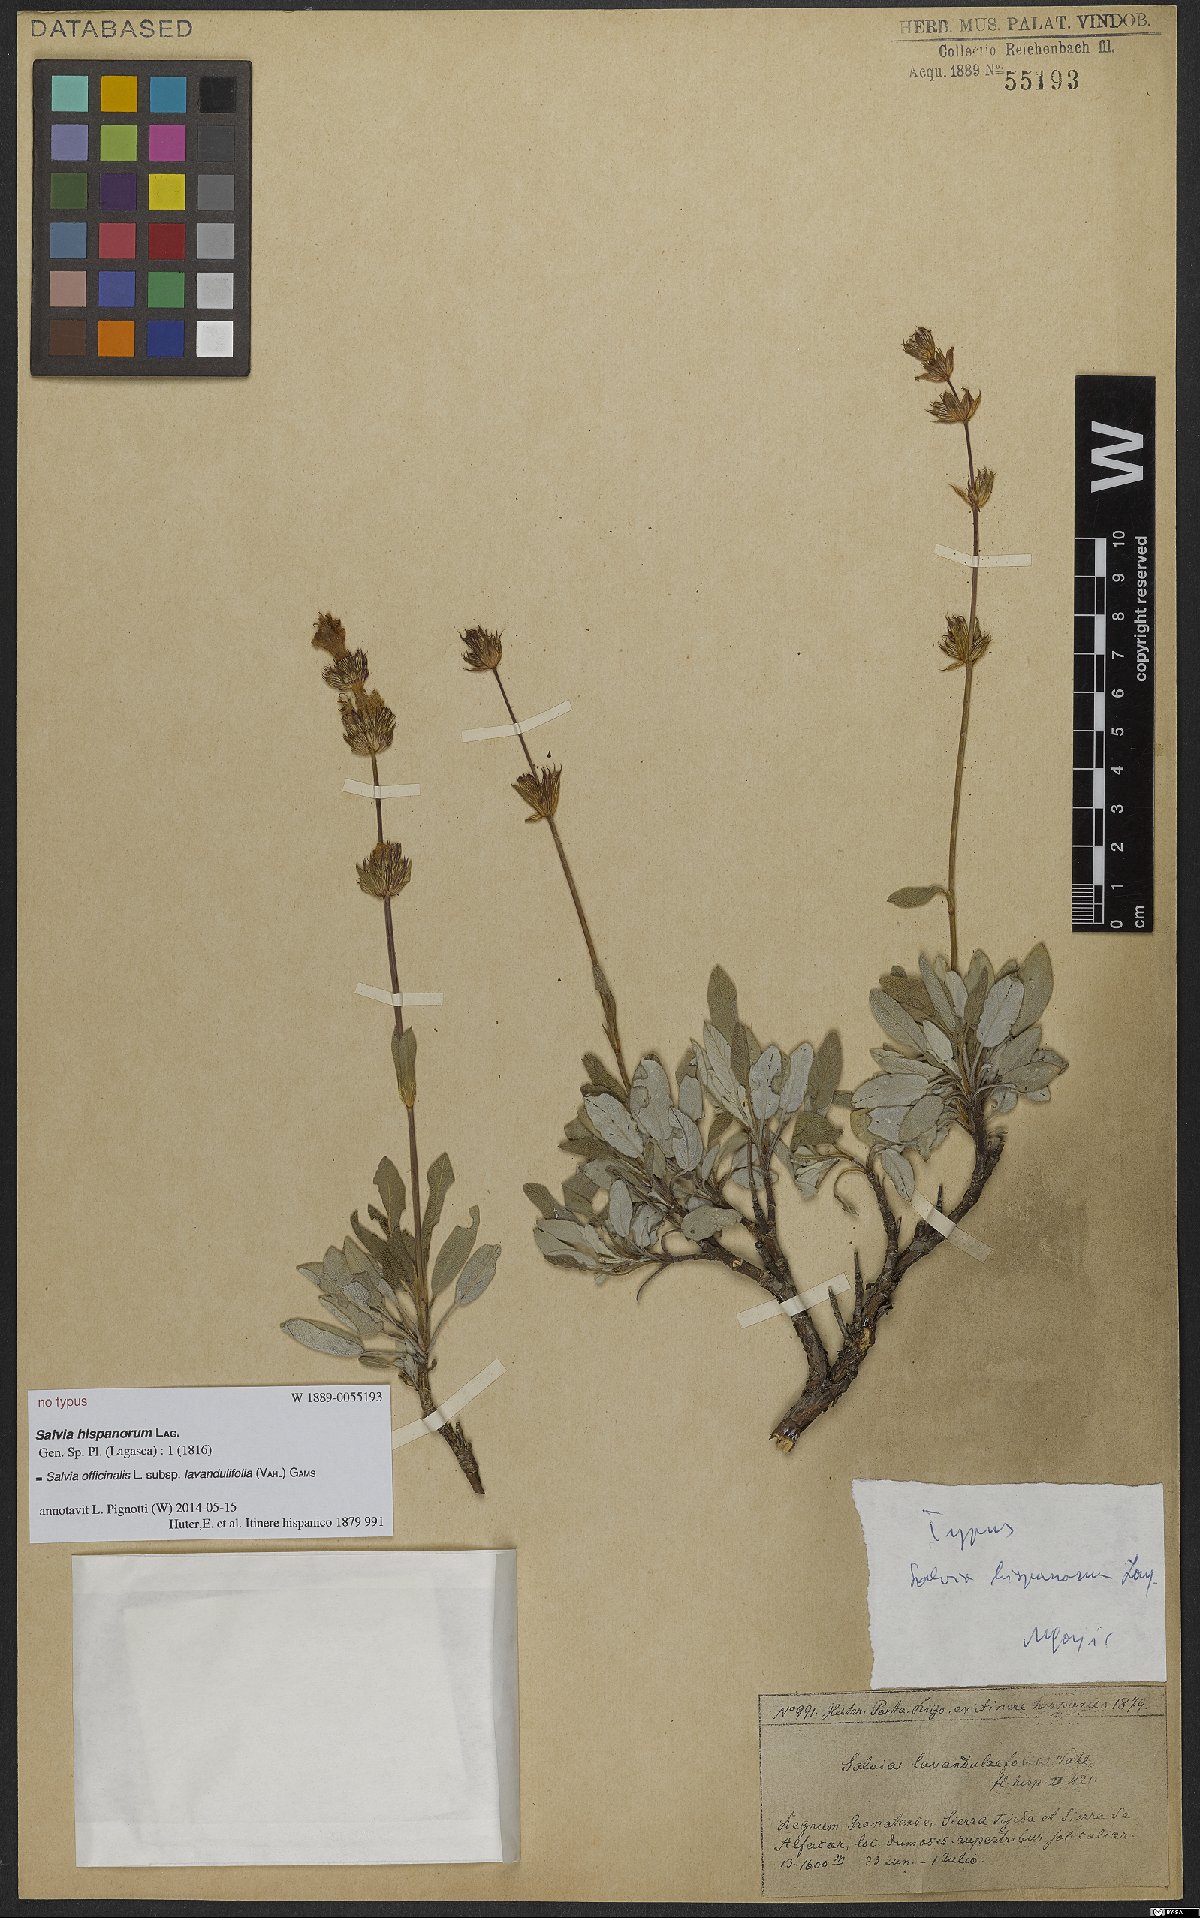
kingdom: Plantae
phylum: Tracheophyta
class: Magnoliopsida
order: Lamiales
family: Lamiaceae
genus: Salvia
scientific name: Salvia officinalis
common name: Sage
